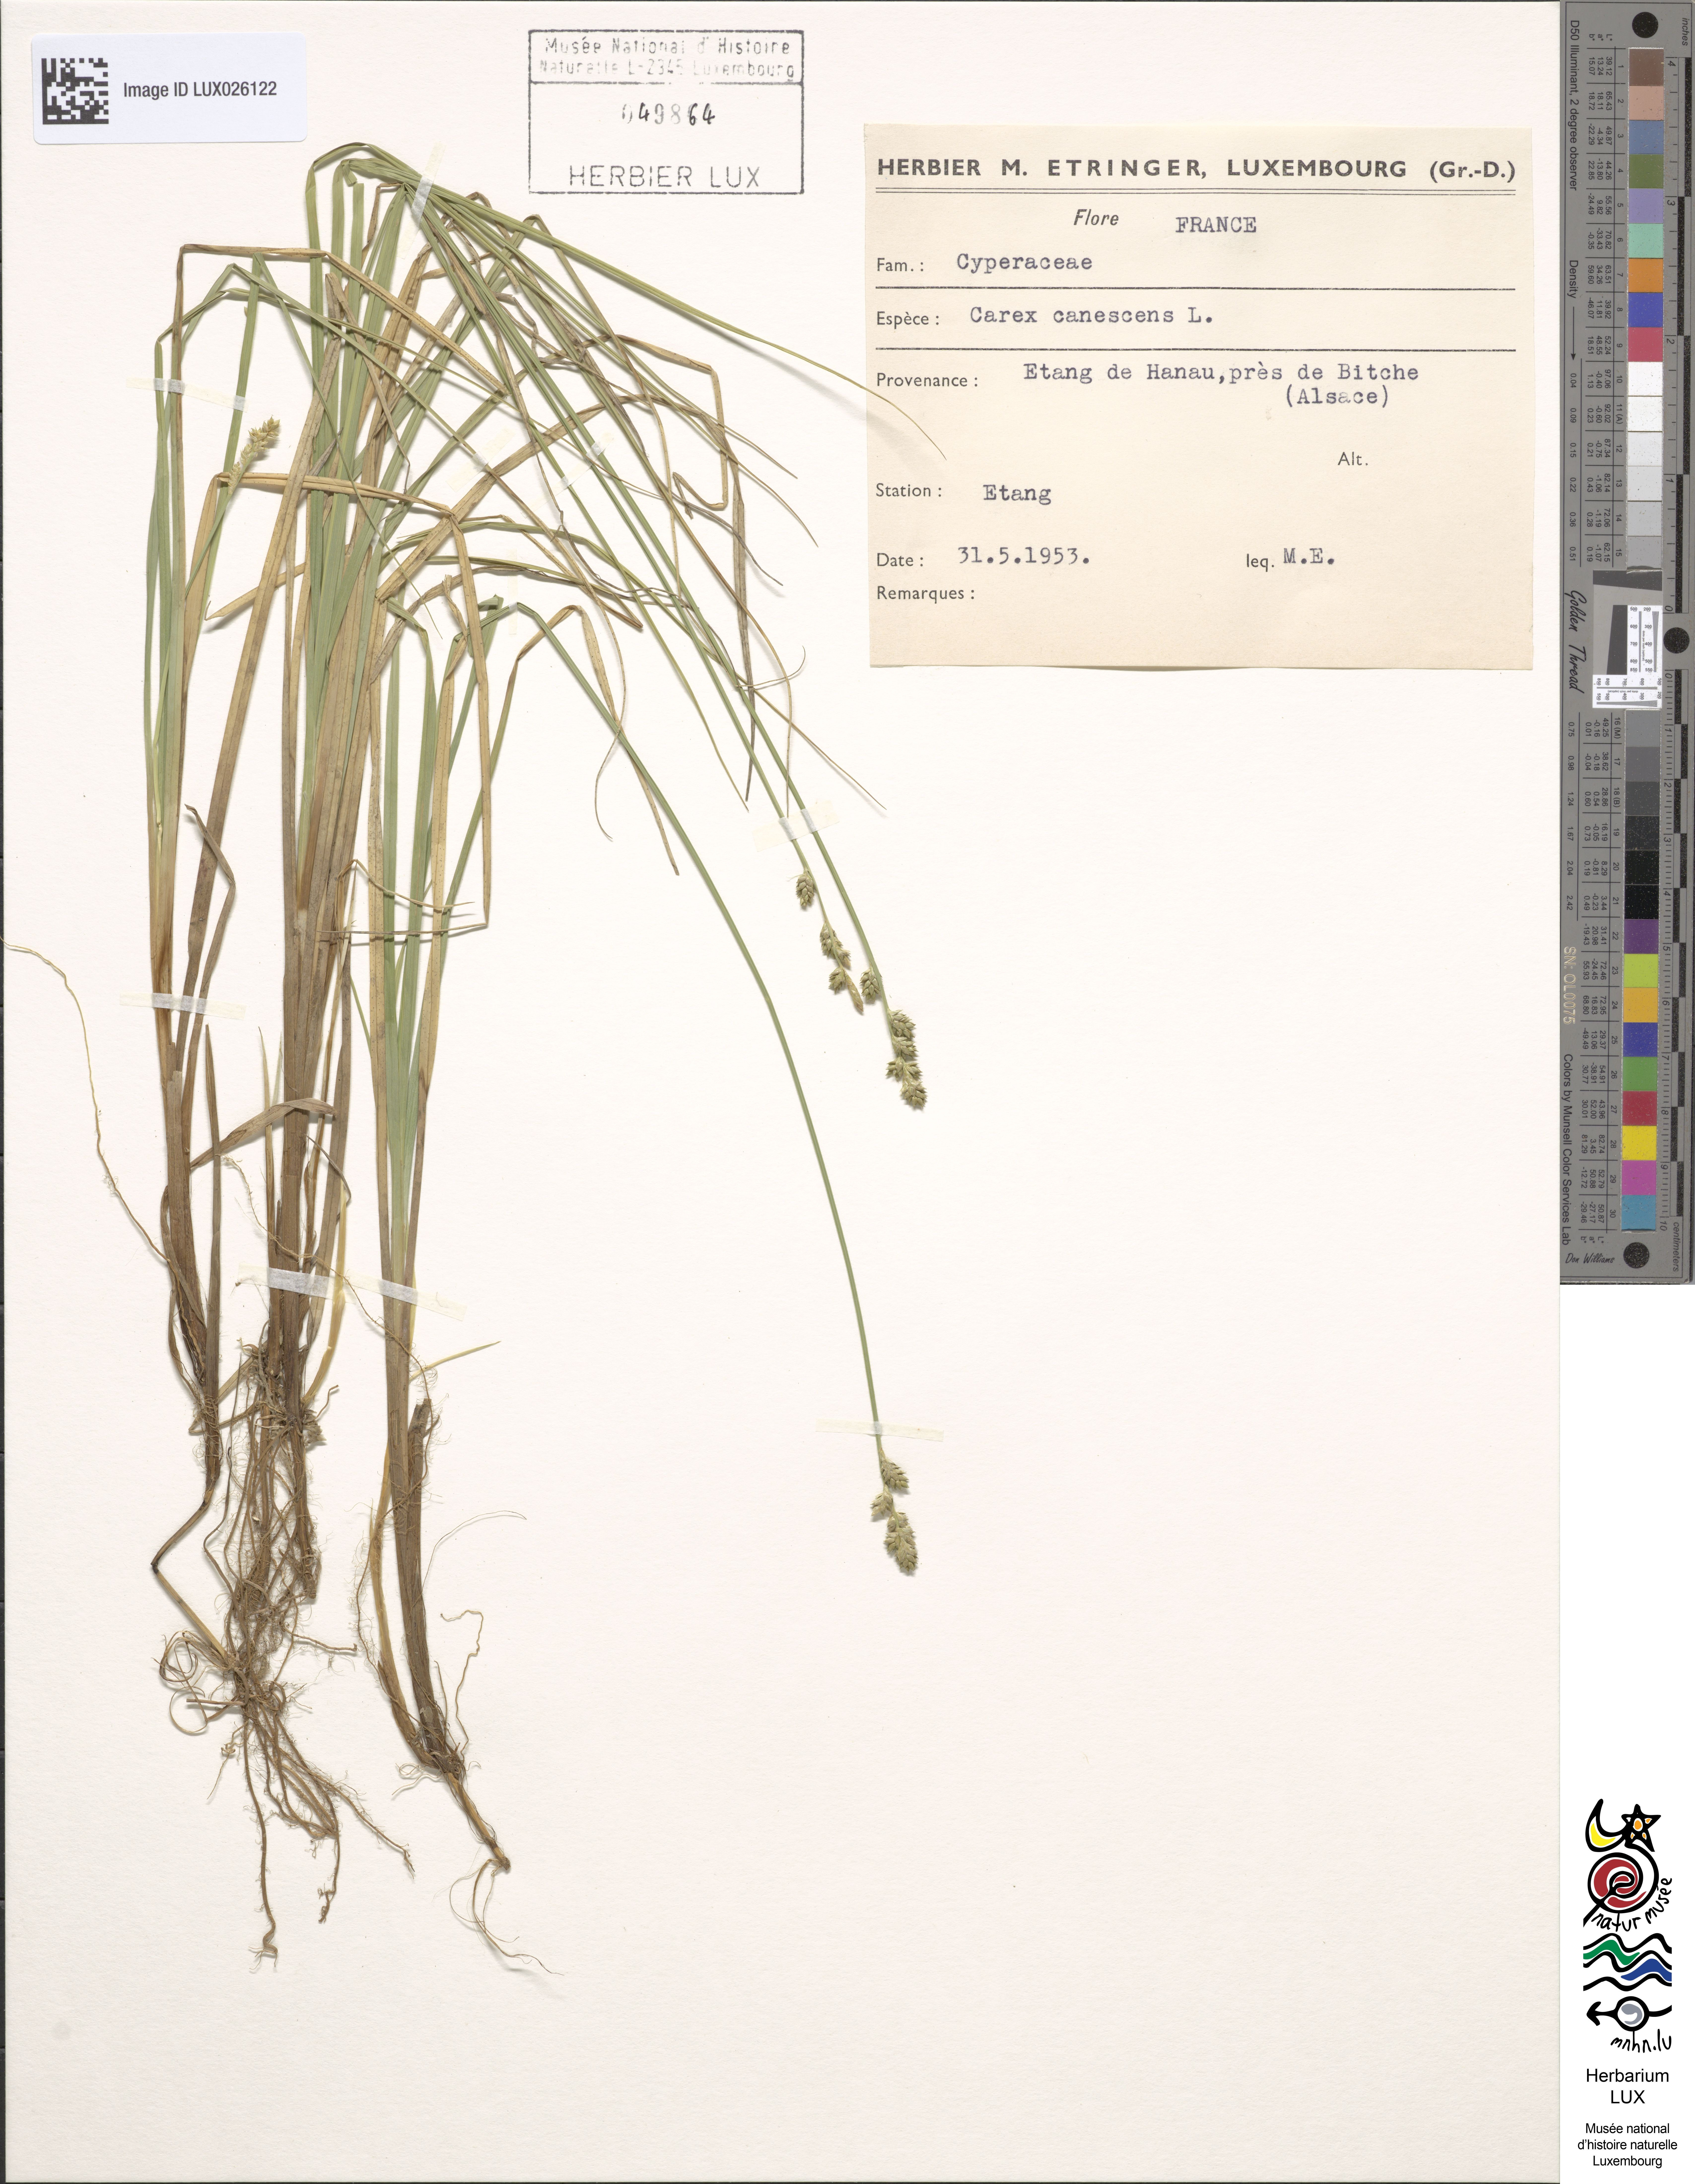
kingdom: Plantae
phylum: Tracheophyta
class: Liliopsida
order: Poales
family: Cyperaceae
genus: Carex
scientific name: Carex canescens
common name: White sedge
